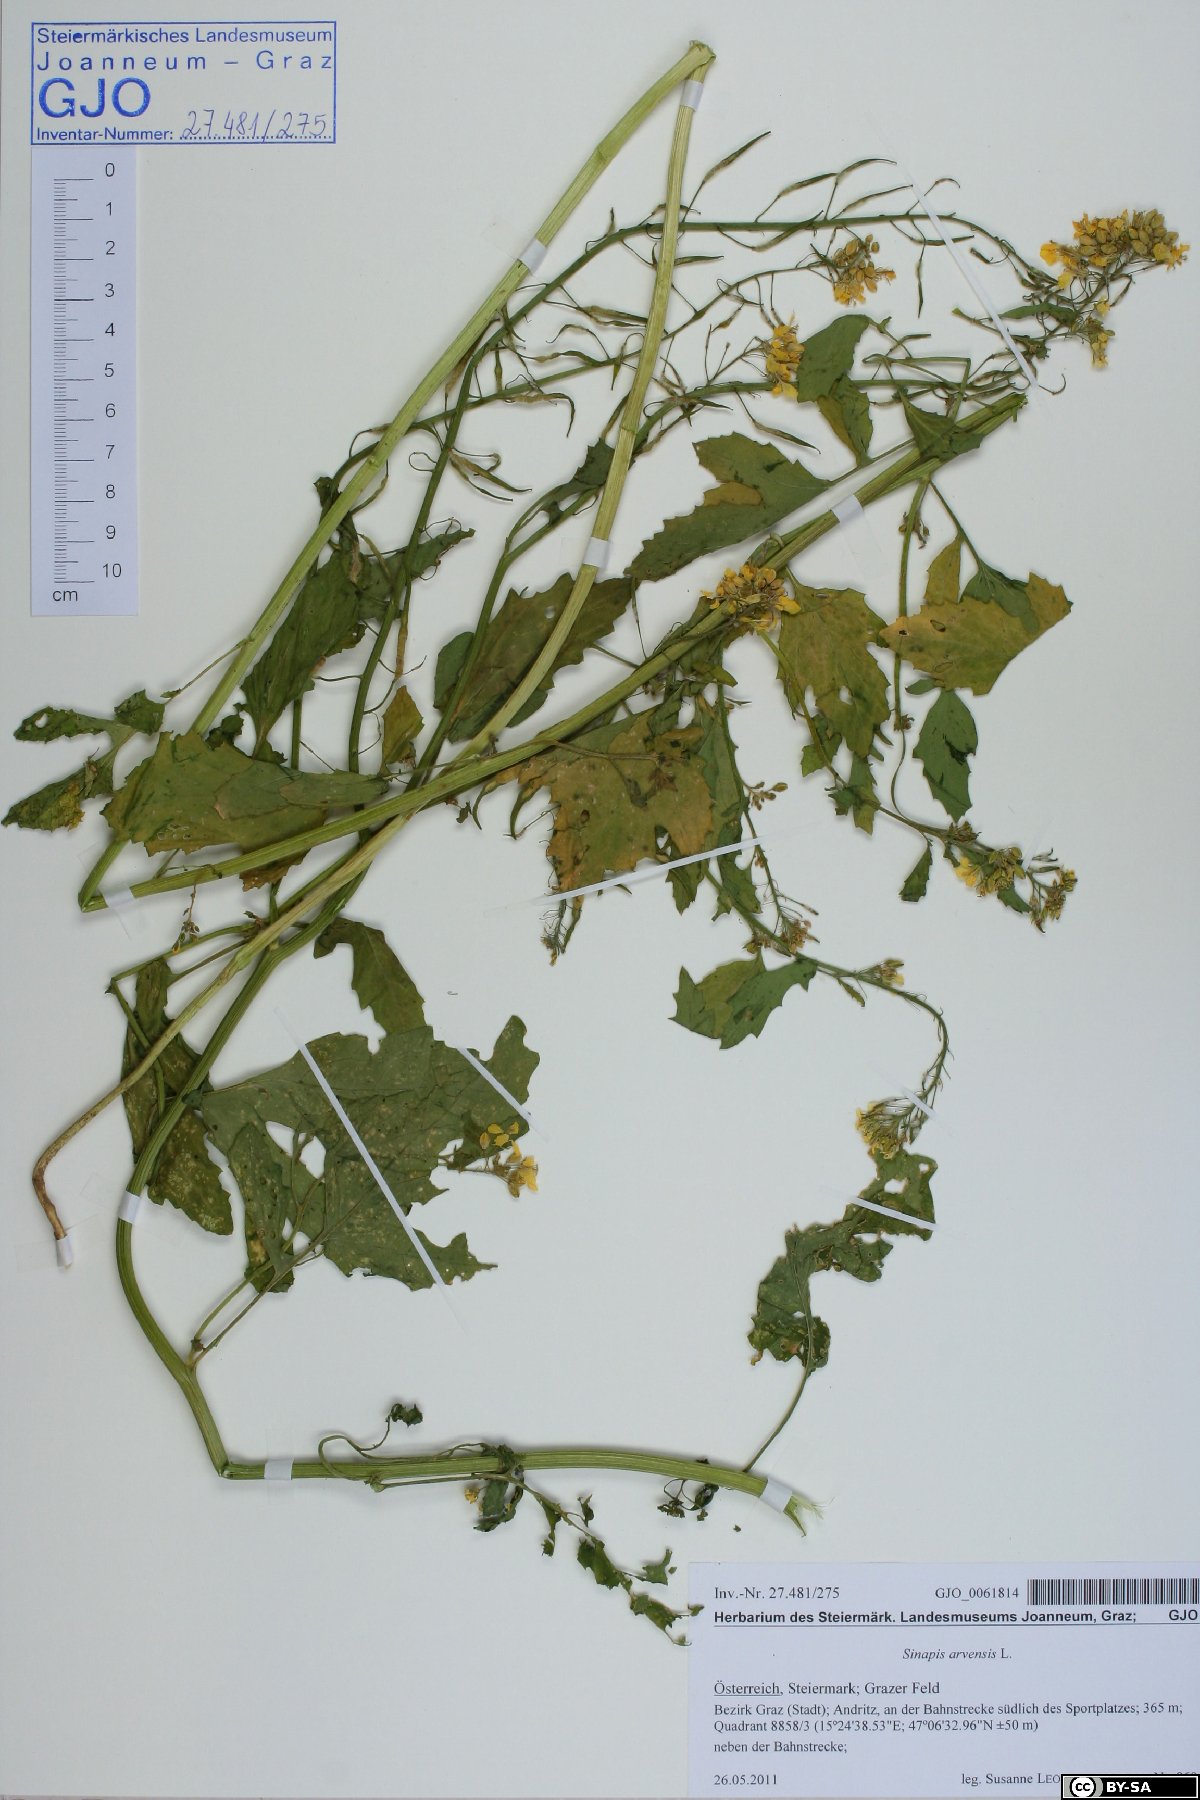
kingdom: Plantae
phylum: Tracheophyta
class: Magnoliopsida
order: Brassicales
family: Brassicaceae
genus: Sinapis
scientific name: Sinapis arvensis
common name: Charlock
